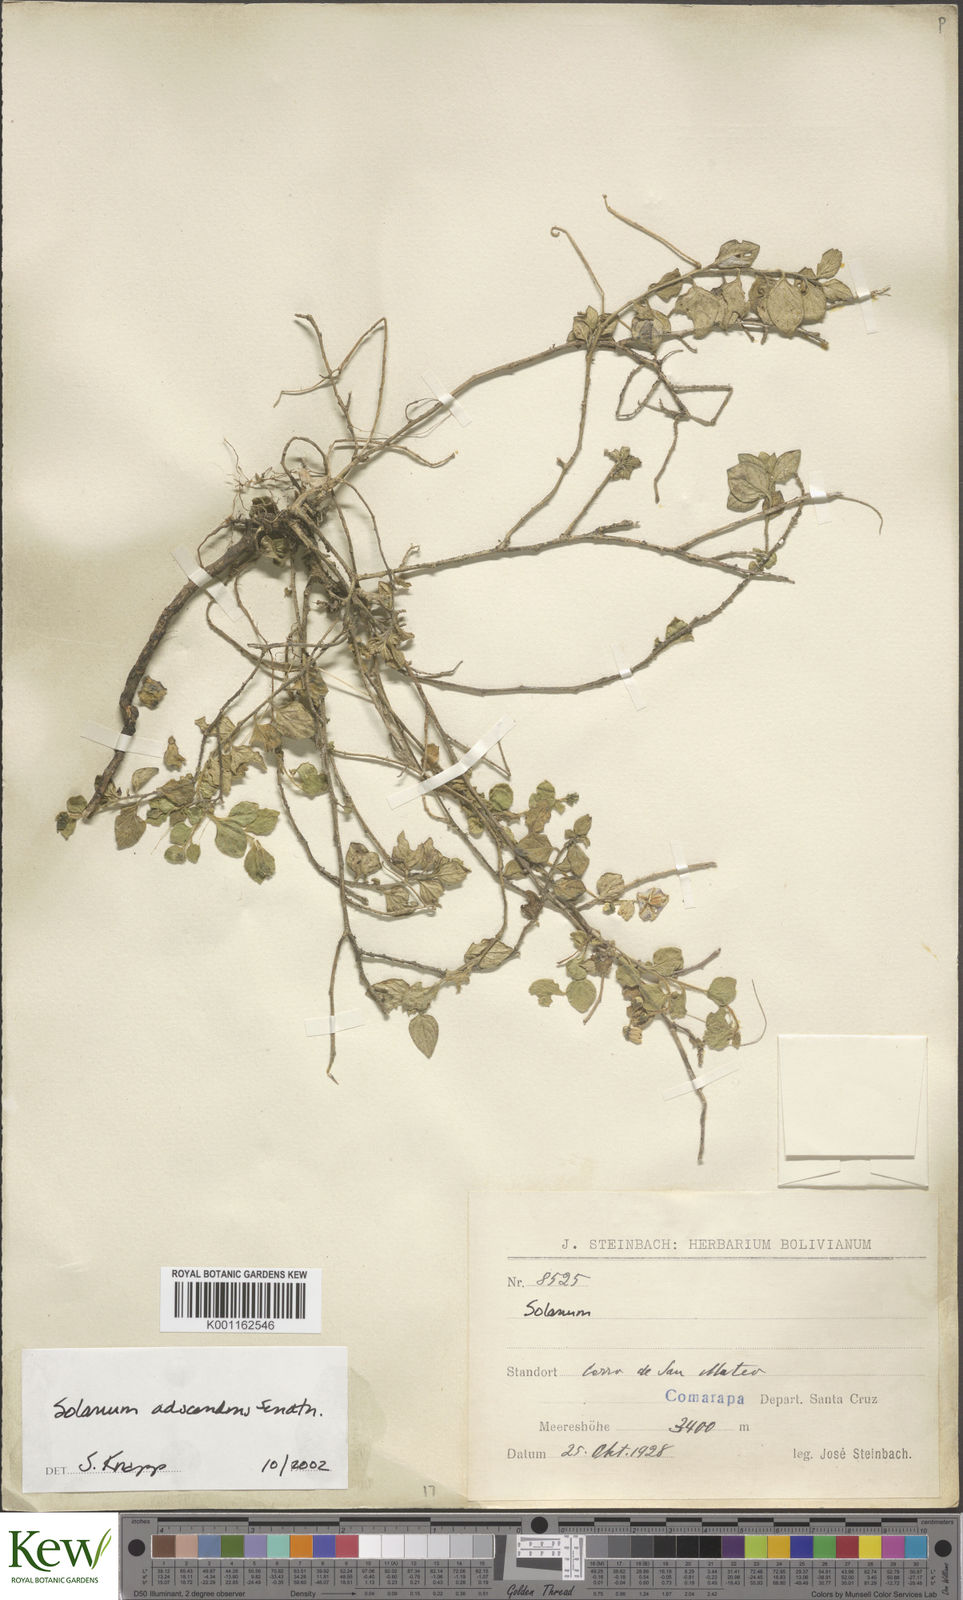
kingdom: Plantae
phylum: Tracheophyta
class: Magnoliopsida
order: Solanales
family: Solanaceae
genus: Solanum
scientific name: Solanum adscendens
